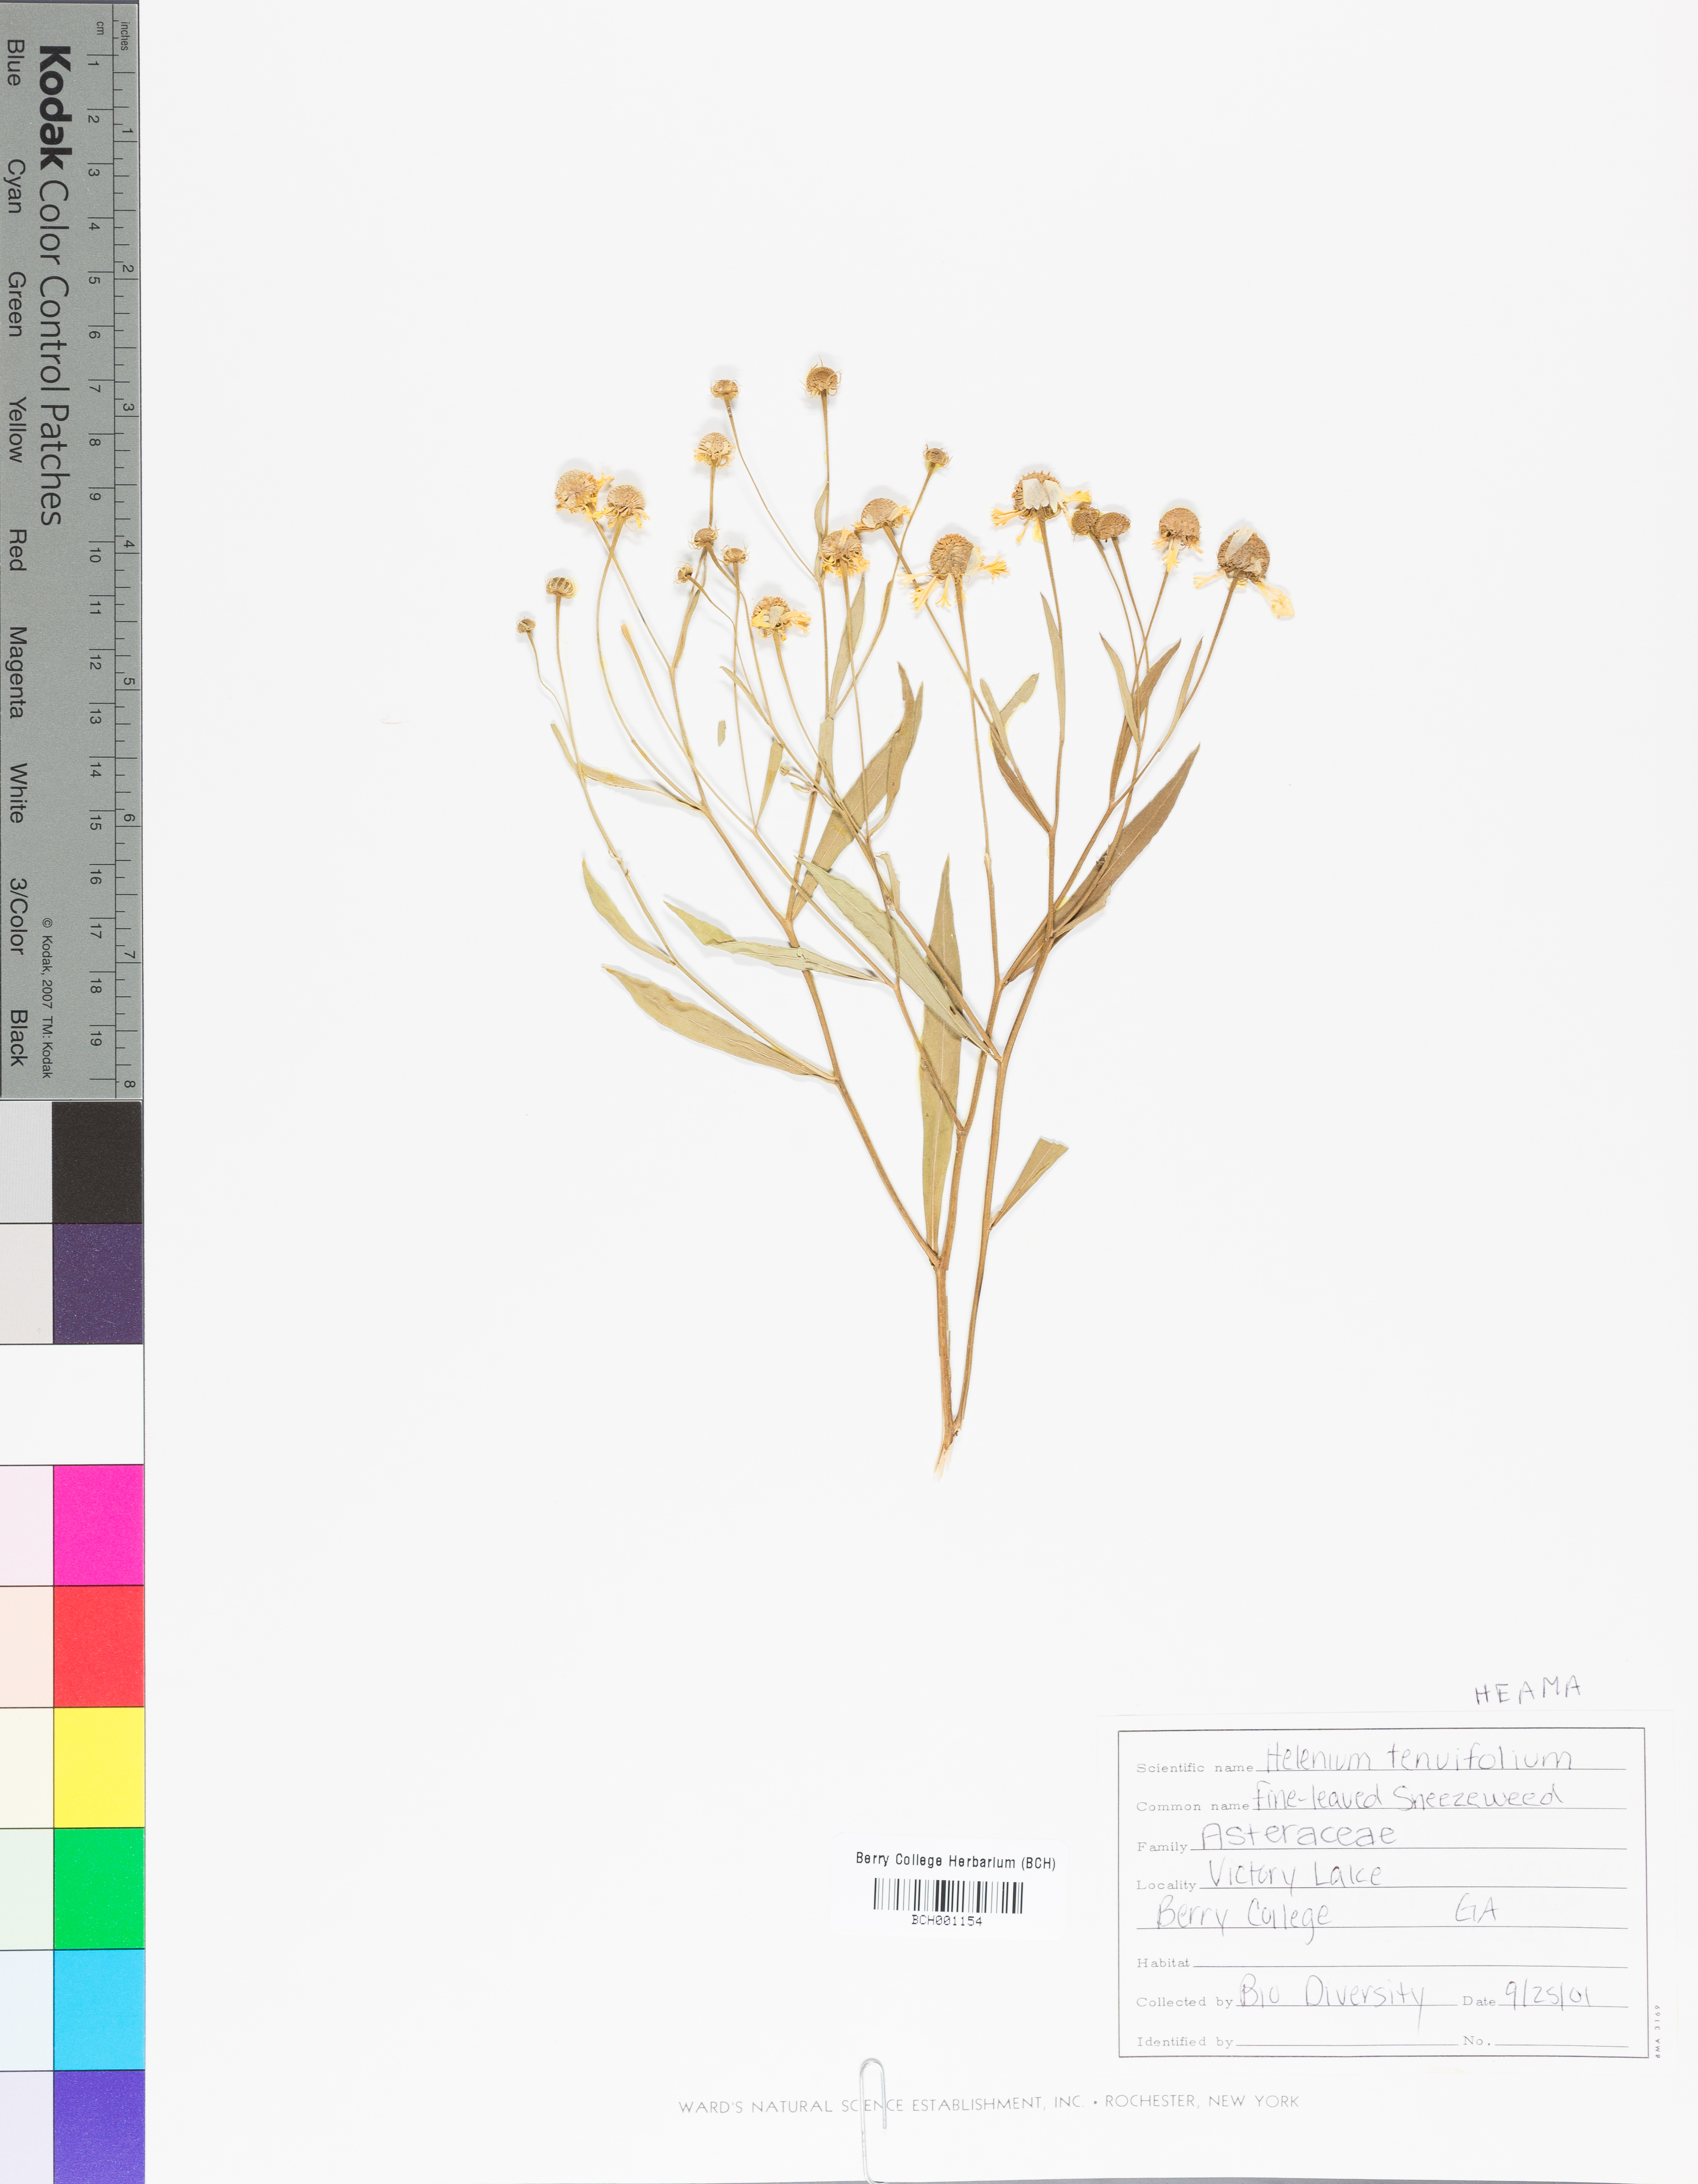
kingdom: Plantae
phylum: Tracheophyta
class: Magnoliopsida
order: Asterales
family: Asteraceae
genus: Helenium
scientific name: Helenium amarum
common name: Bitter sneezeweed
